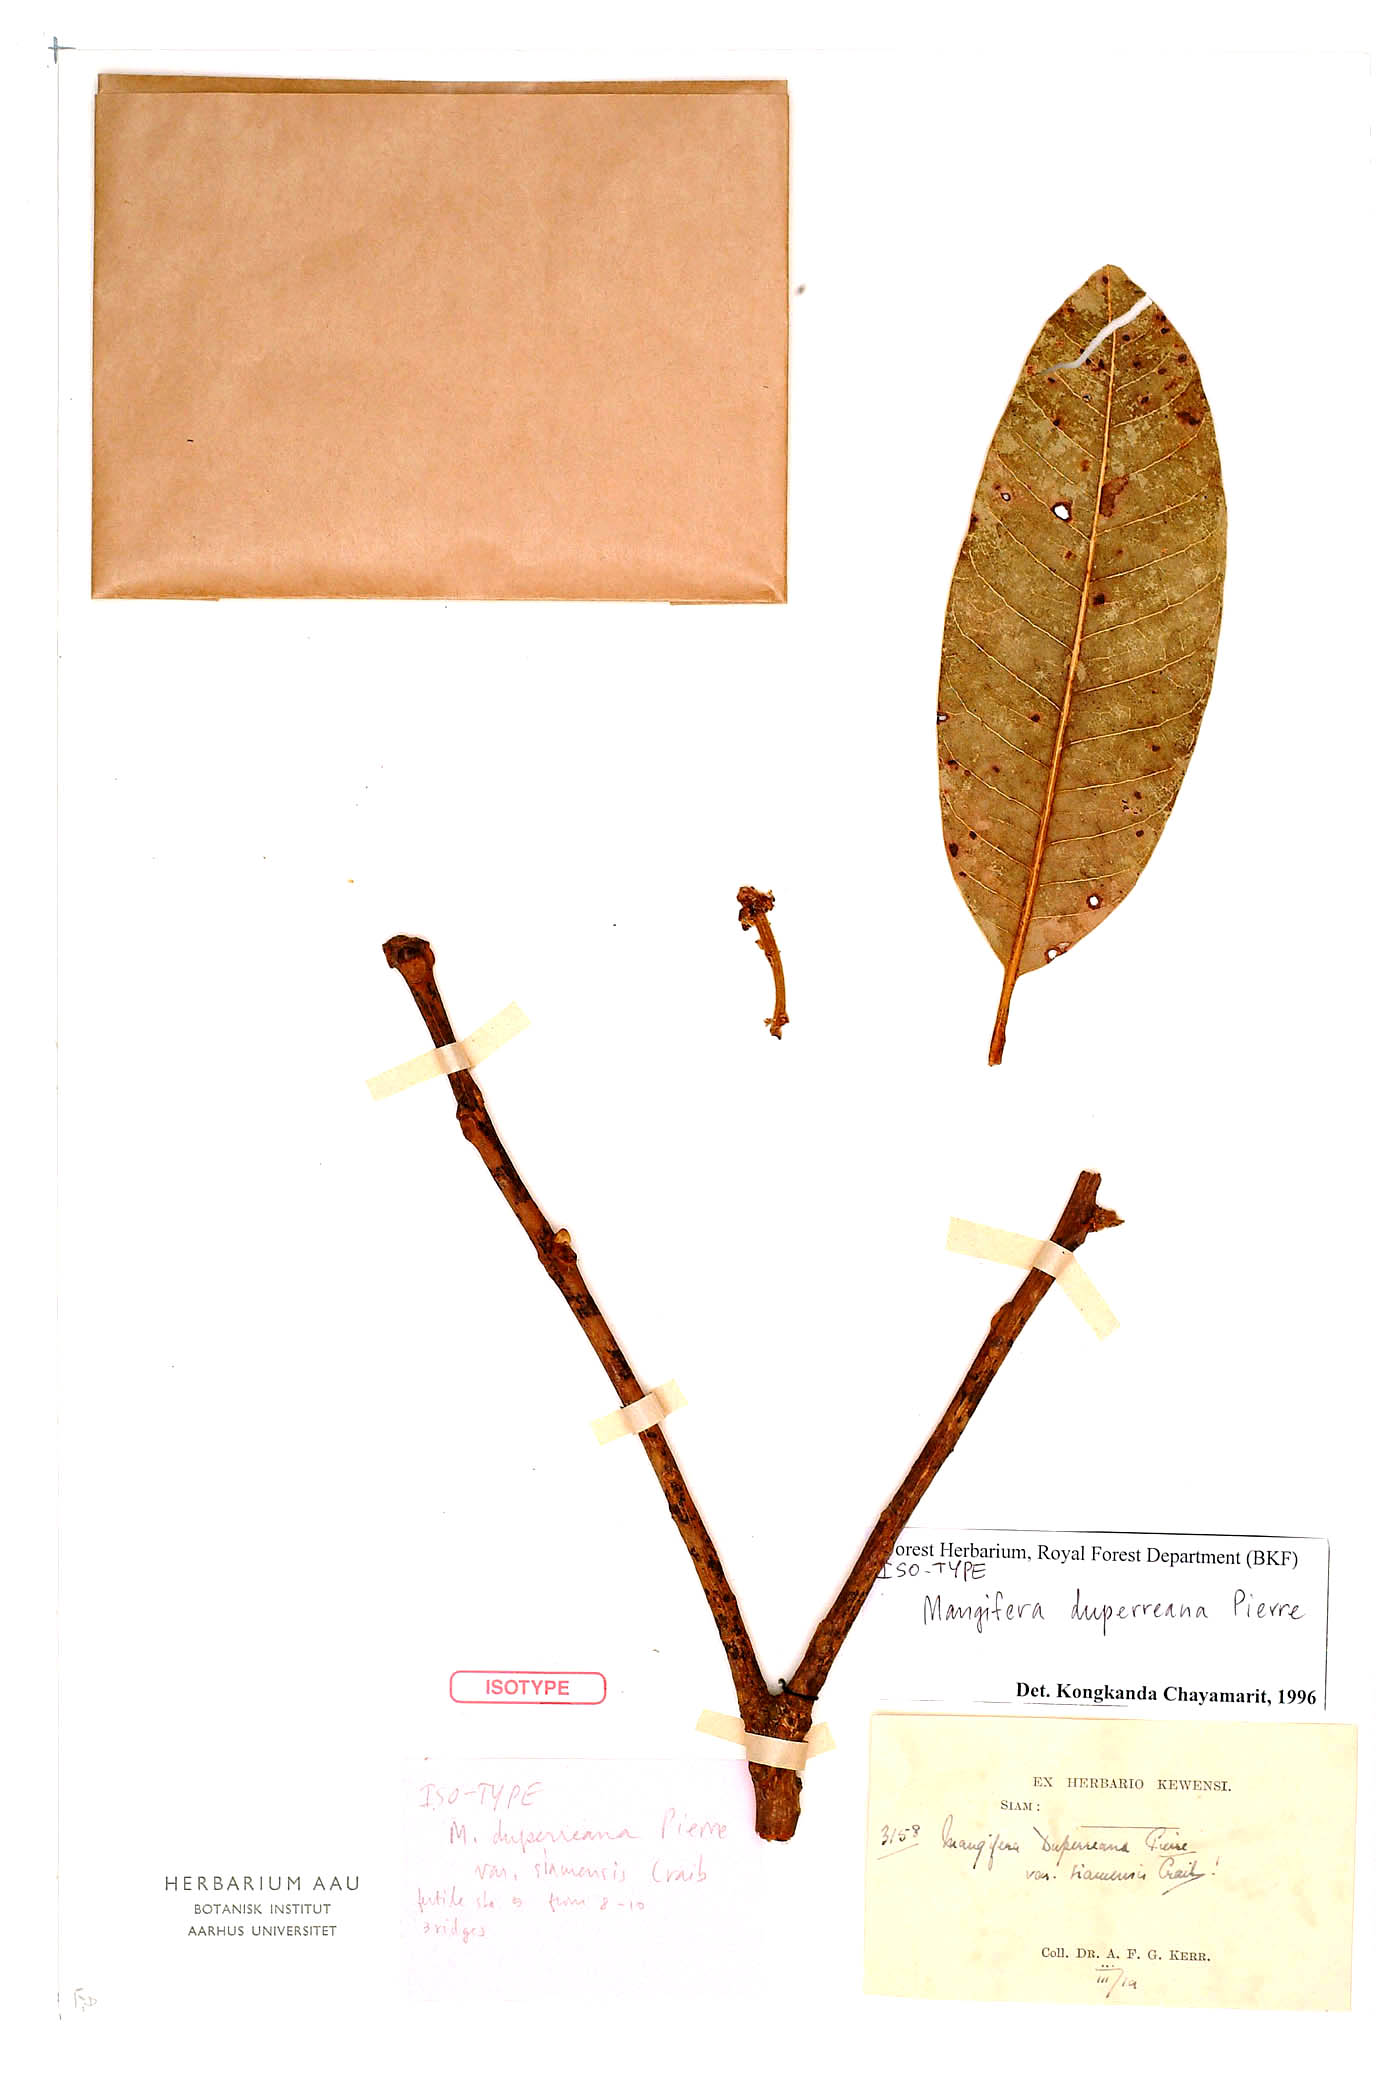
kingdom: Plantae
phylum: Tracheophyta
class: Magnoliopsida
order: Sapindales
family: Anacardiaceae
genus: Mangifera
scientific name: Mangifera duperreana
